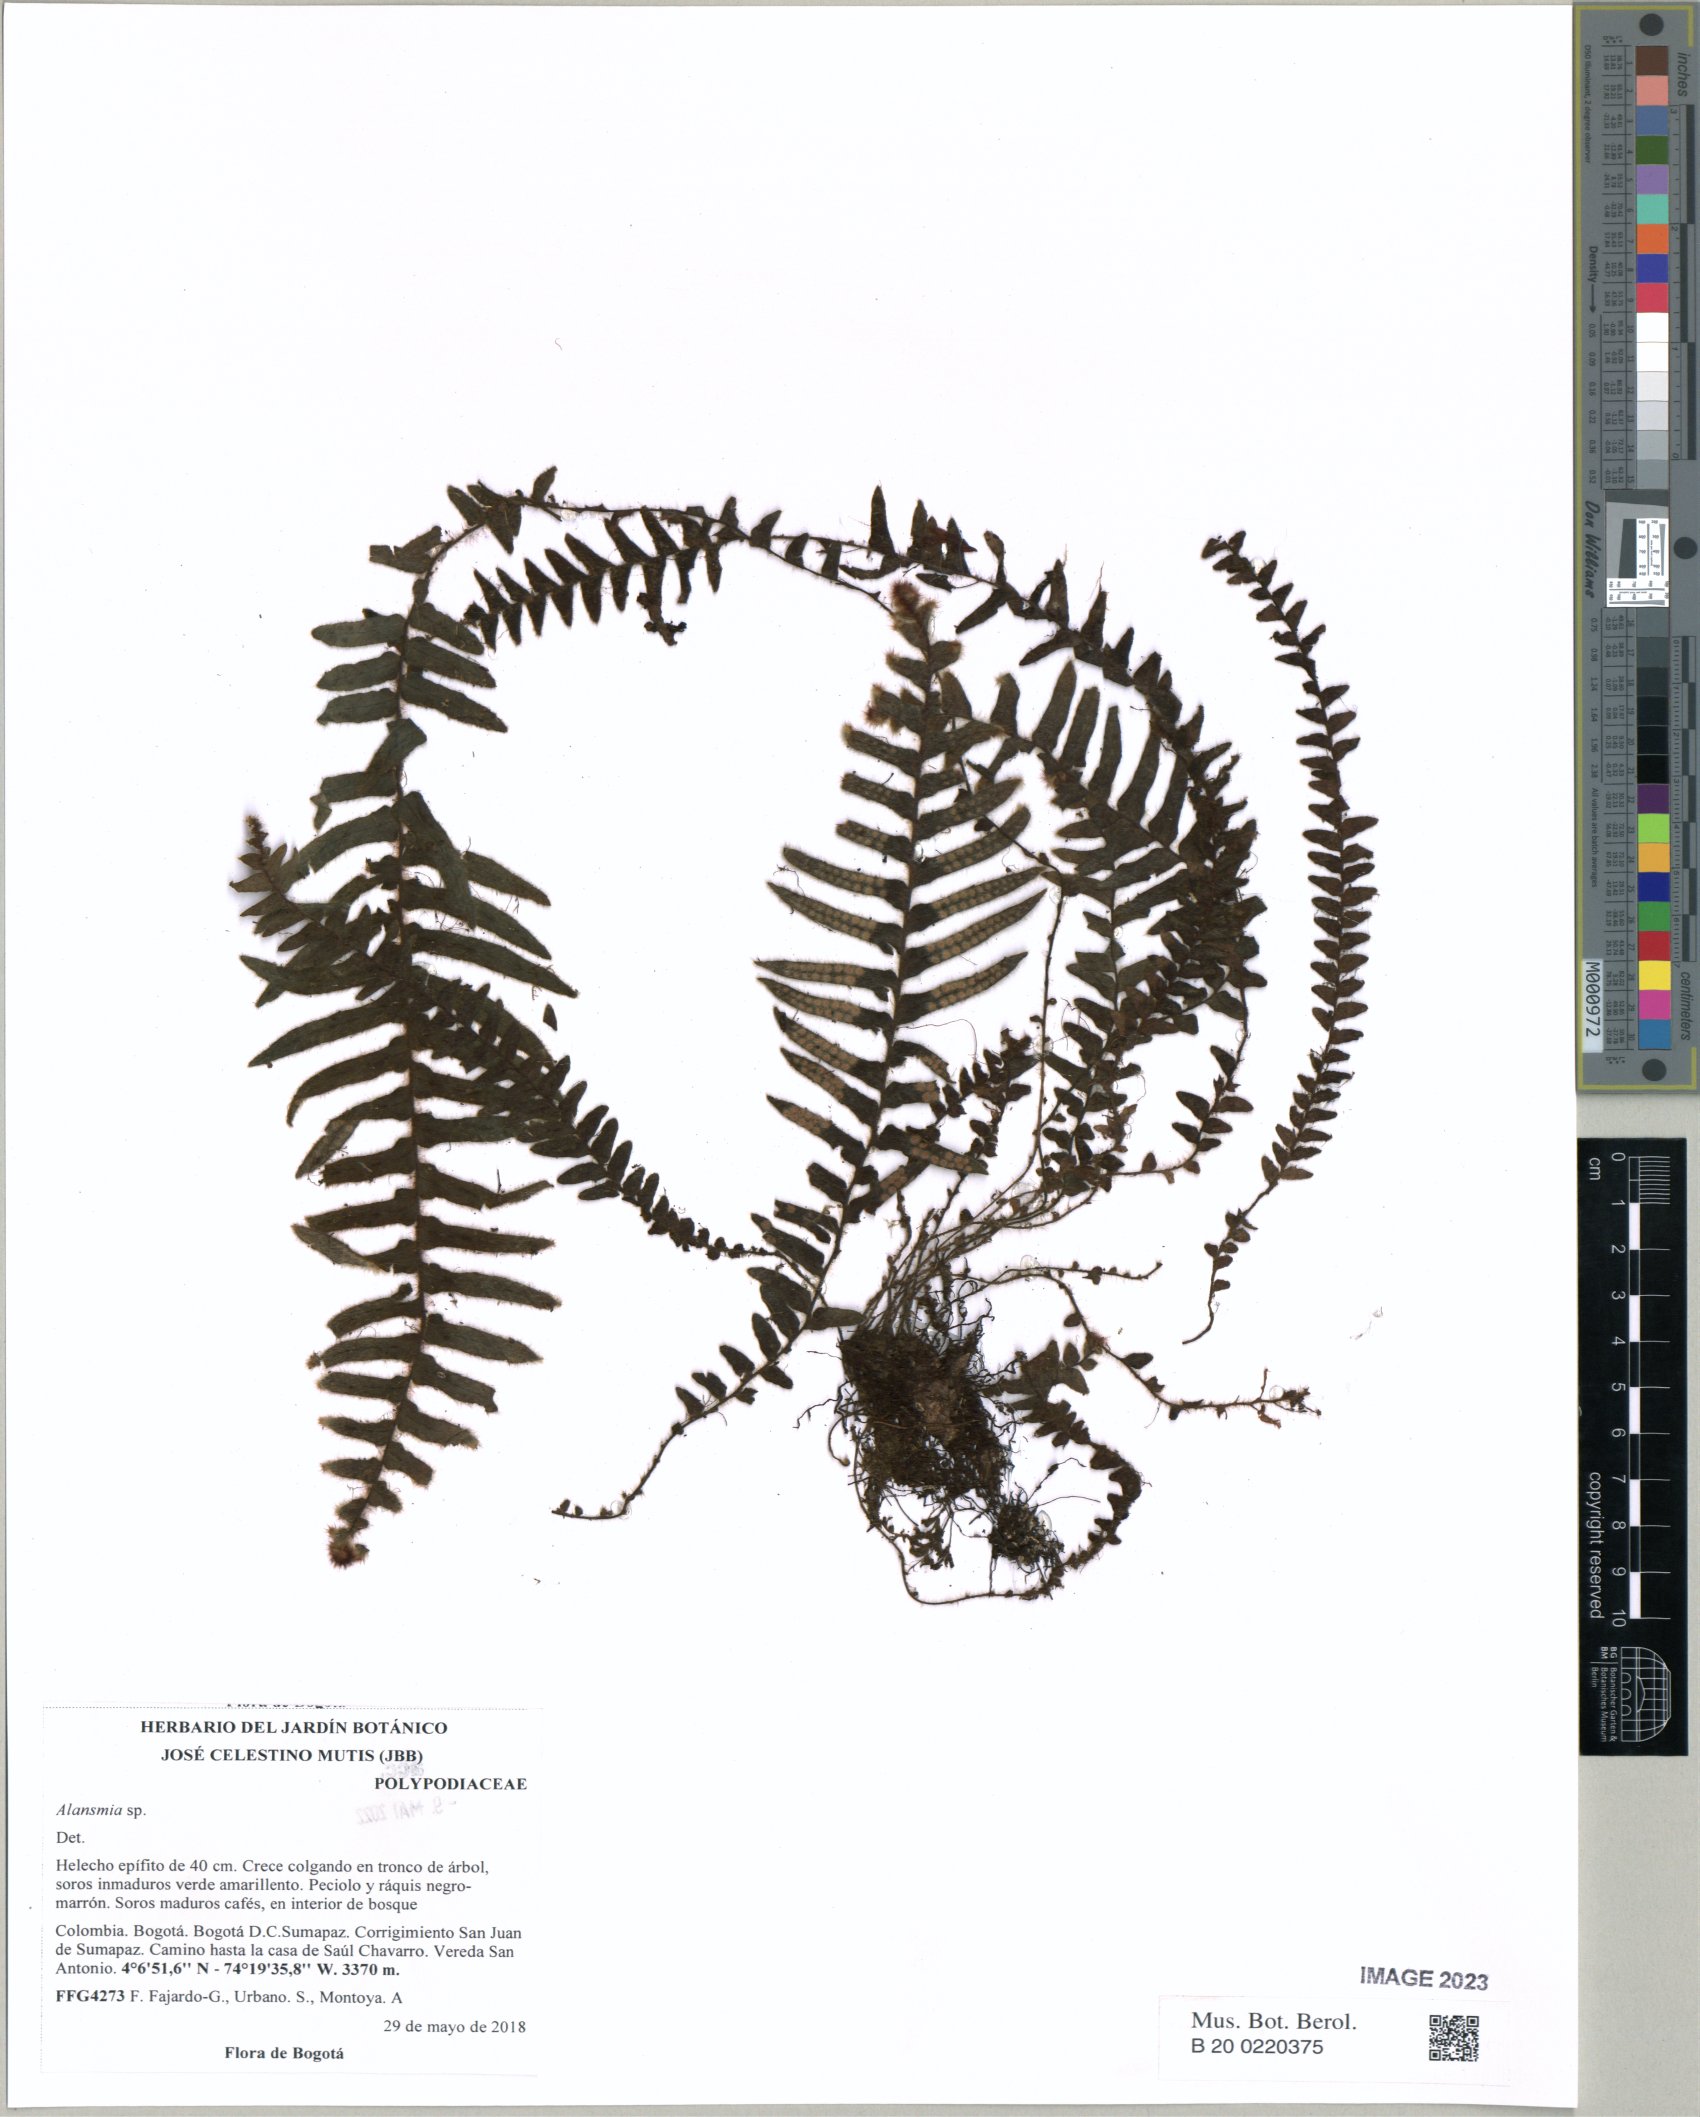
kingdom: Plantae
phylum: Tracheophyta
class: Polypodiopsida
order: Polypodiales
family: Polypodiaceae
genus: Alansmia
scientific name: Alansmia
